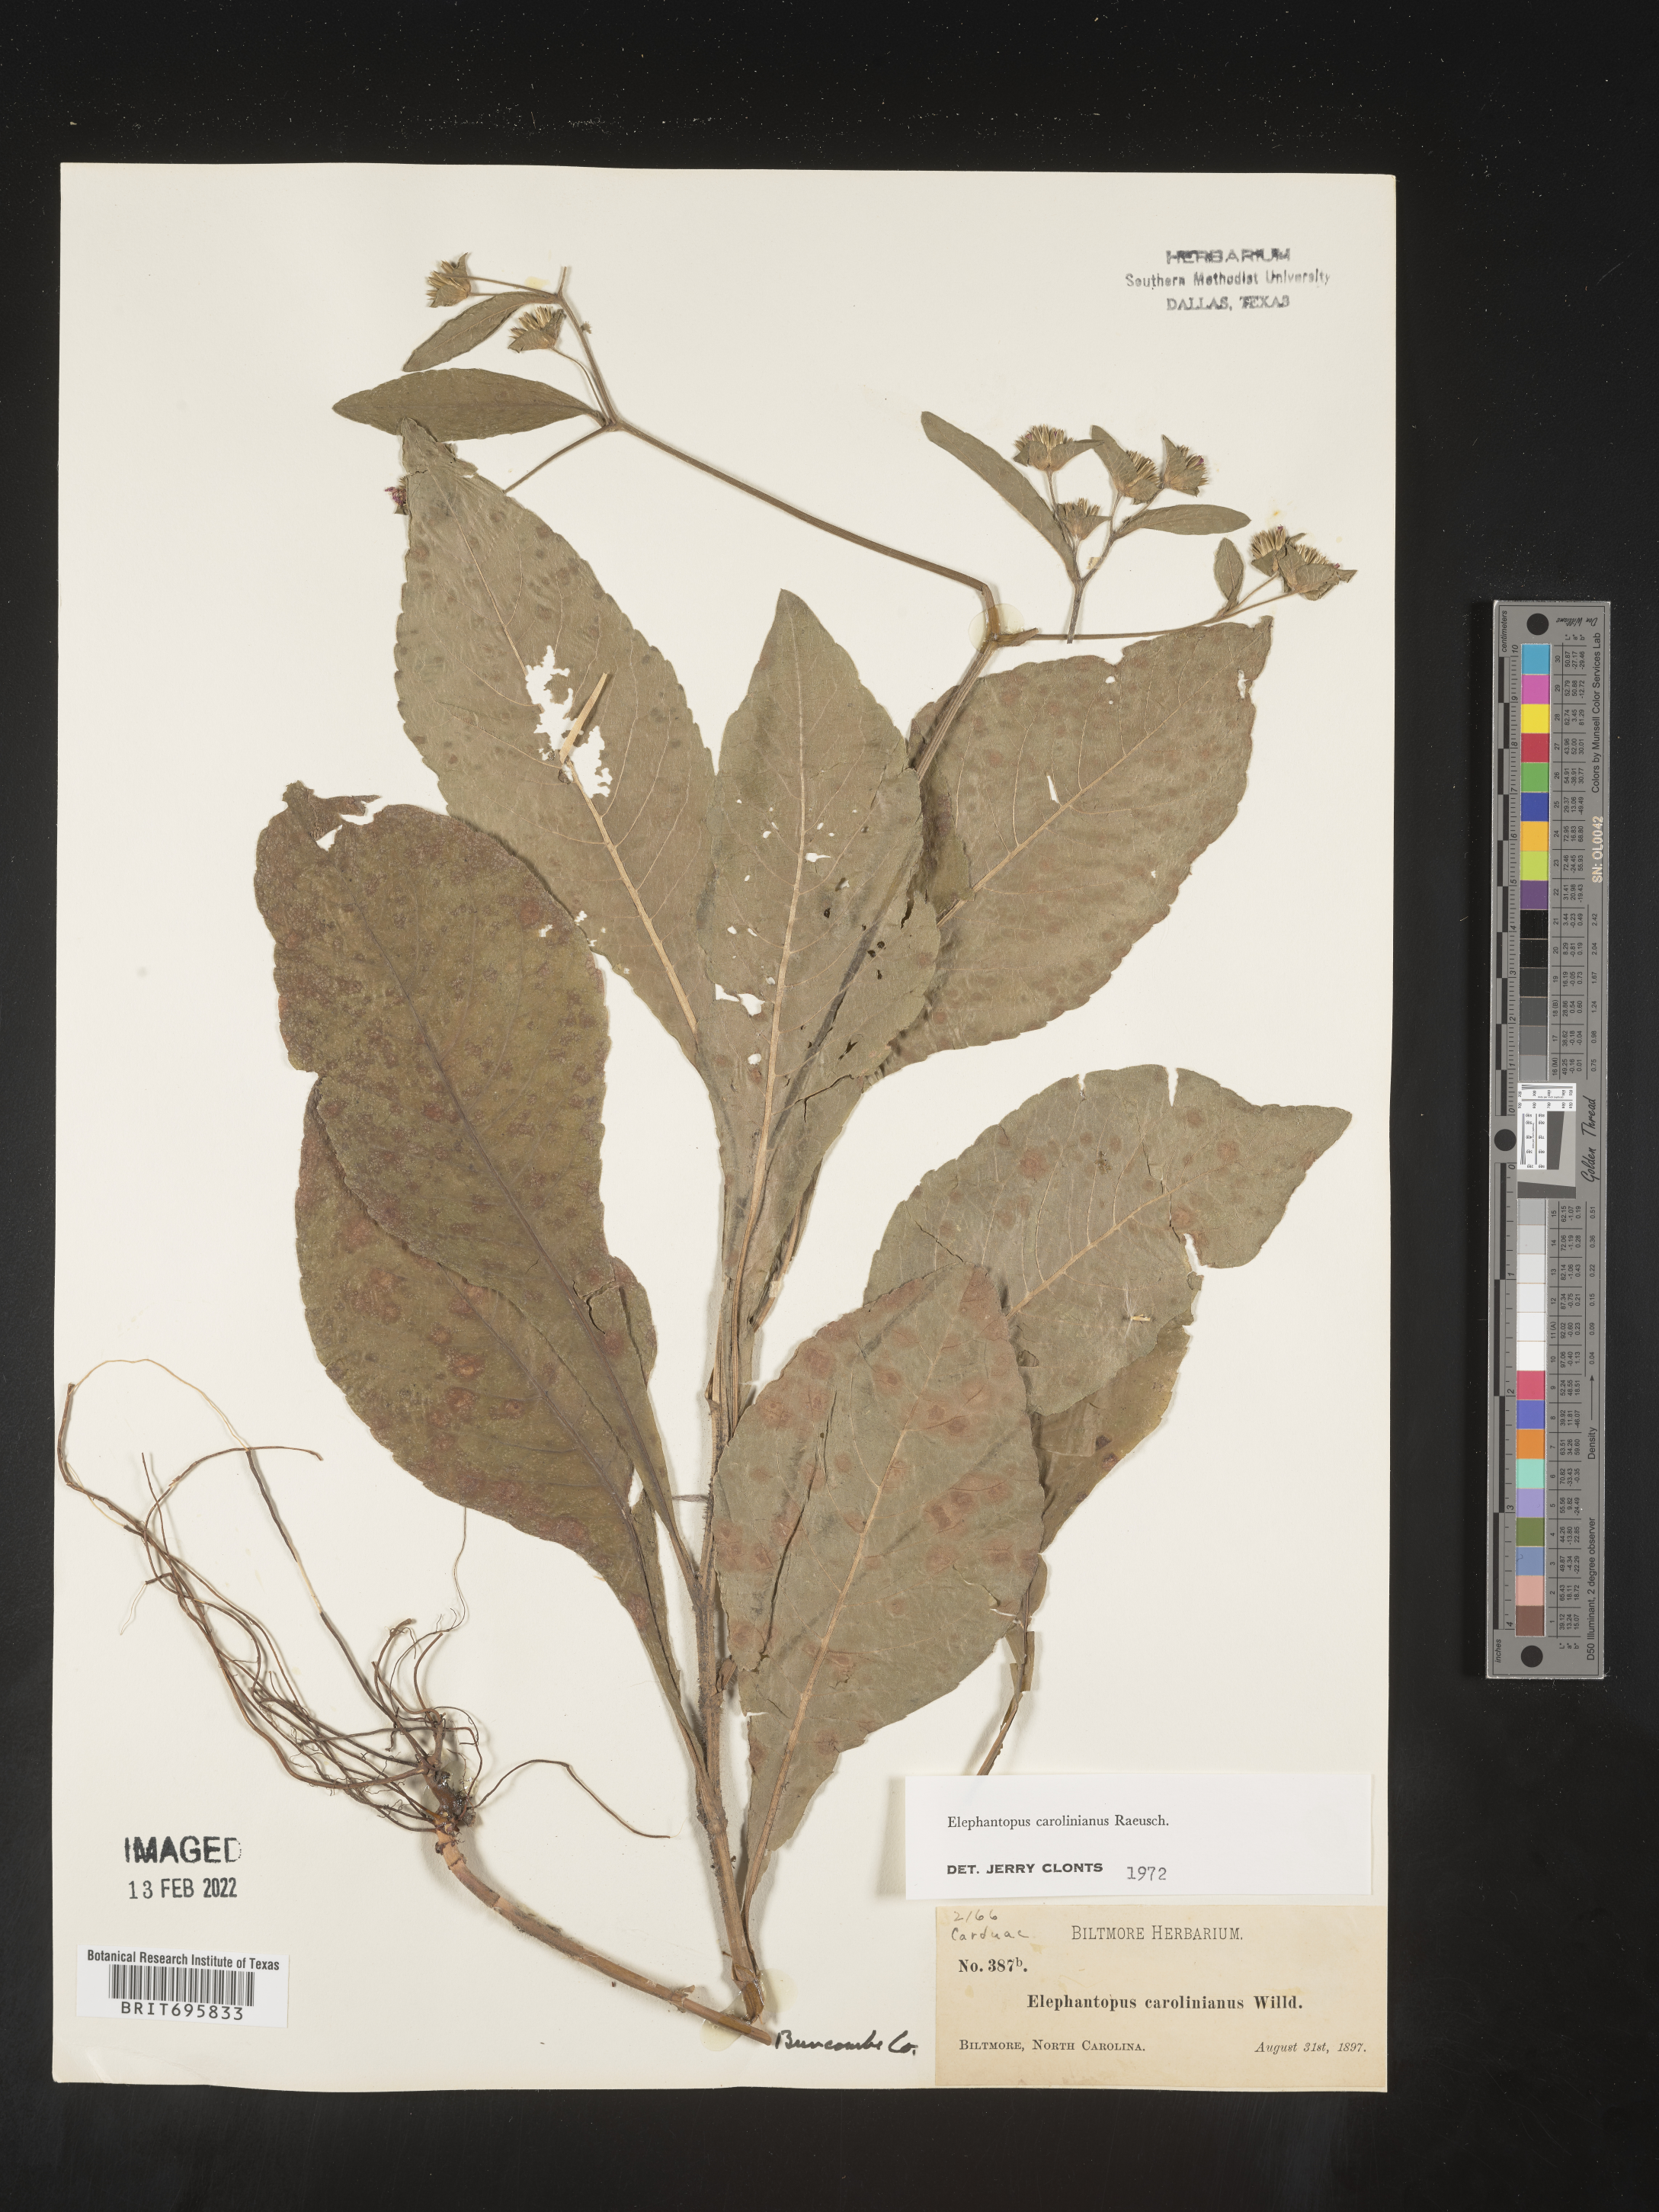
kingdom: Plantae
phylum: Tracheophyta
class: Magnoliopsida
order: Asterales
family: Asteraceae
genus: Elephantopus
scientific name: Elephantopus carolinianus
